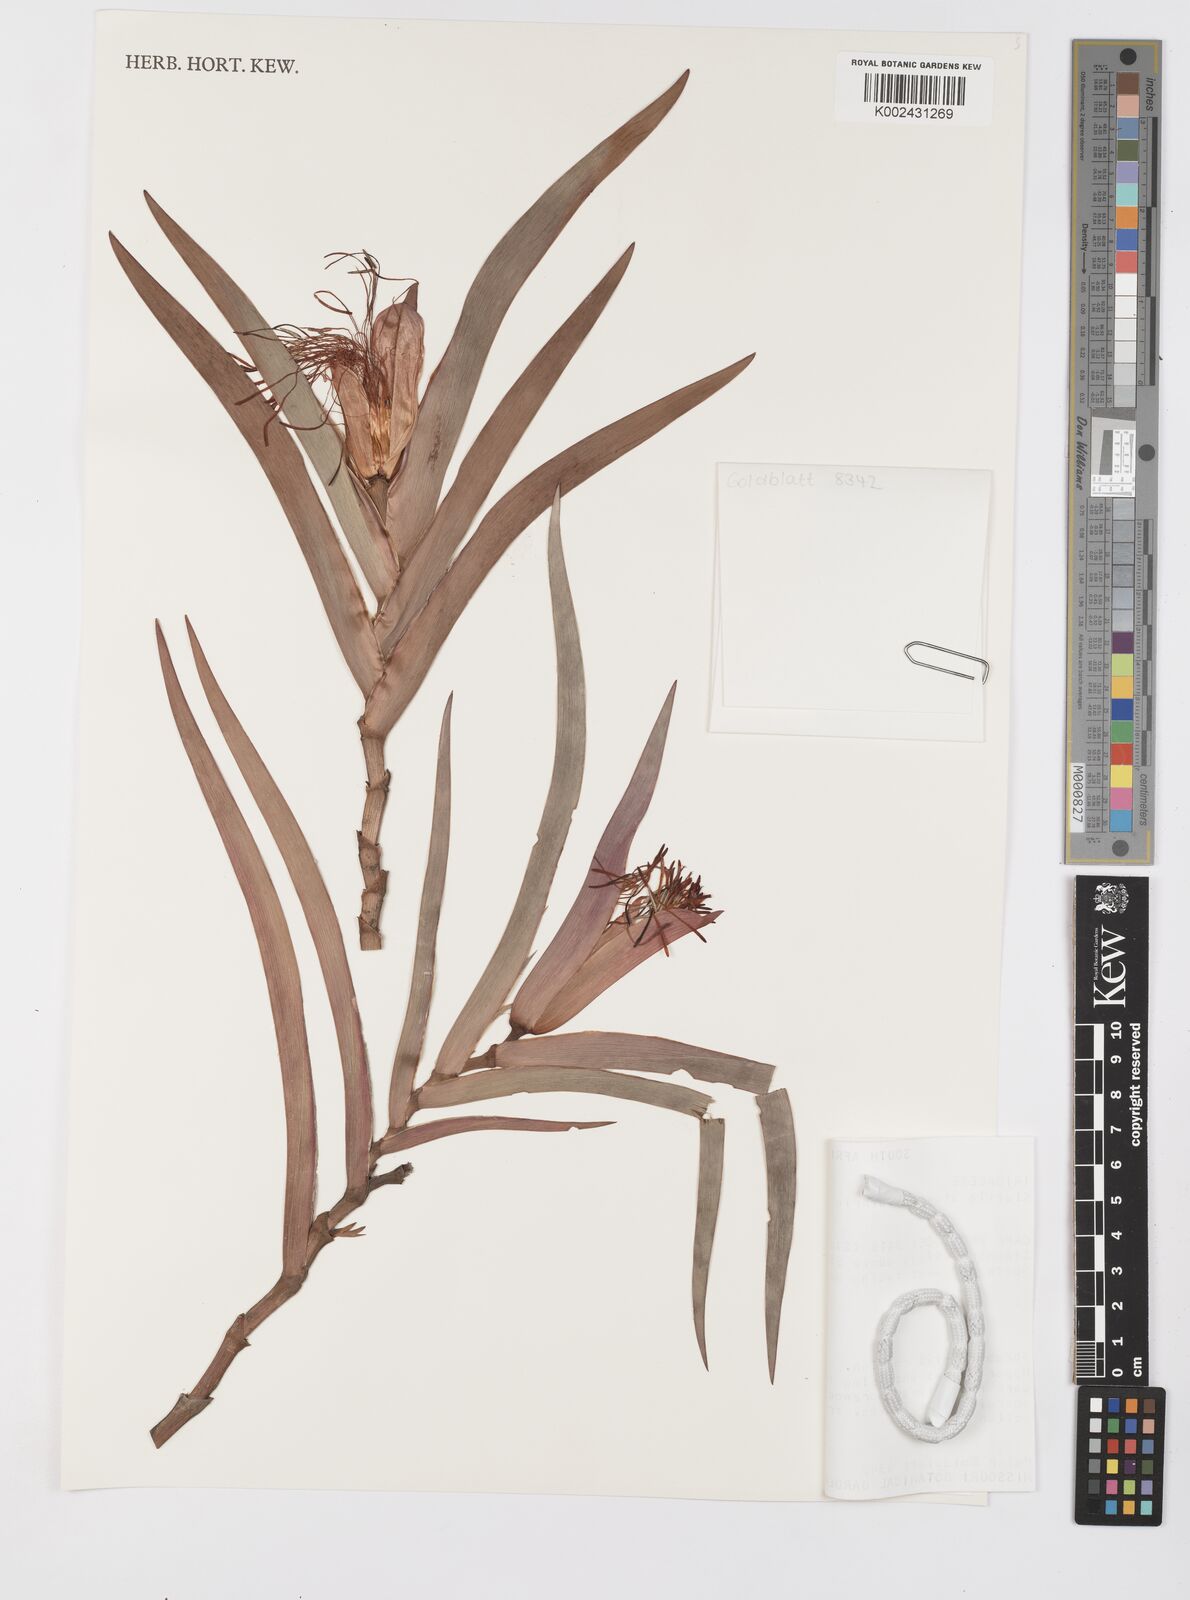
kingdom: Plantae
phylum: Tracheophyta
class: Liliopsida
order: Asparagales
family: Iridaceae
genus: Klattia
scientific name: Klattia stokoei
